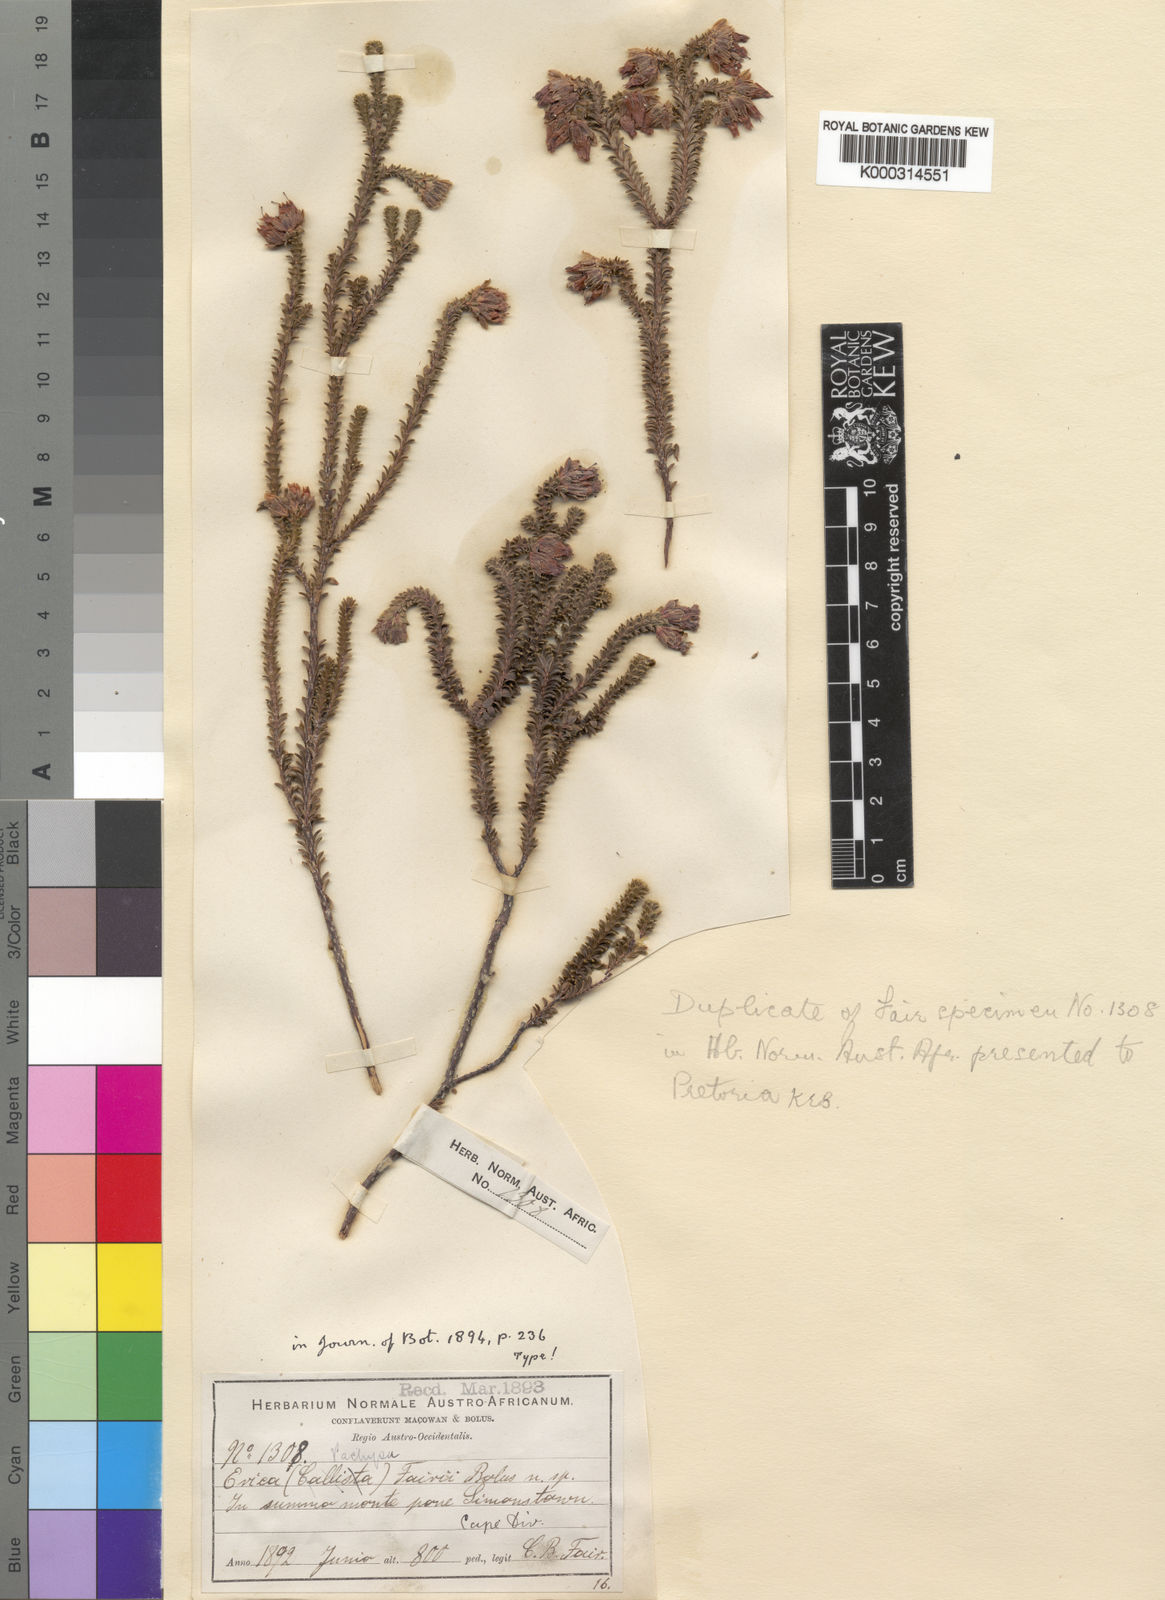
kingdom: Plantae
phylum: Tracheophyta
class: Magnoliopsida
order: Ericales
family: Ericaceae
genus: Erica
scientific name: Erica fairii
